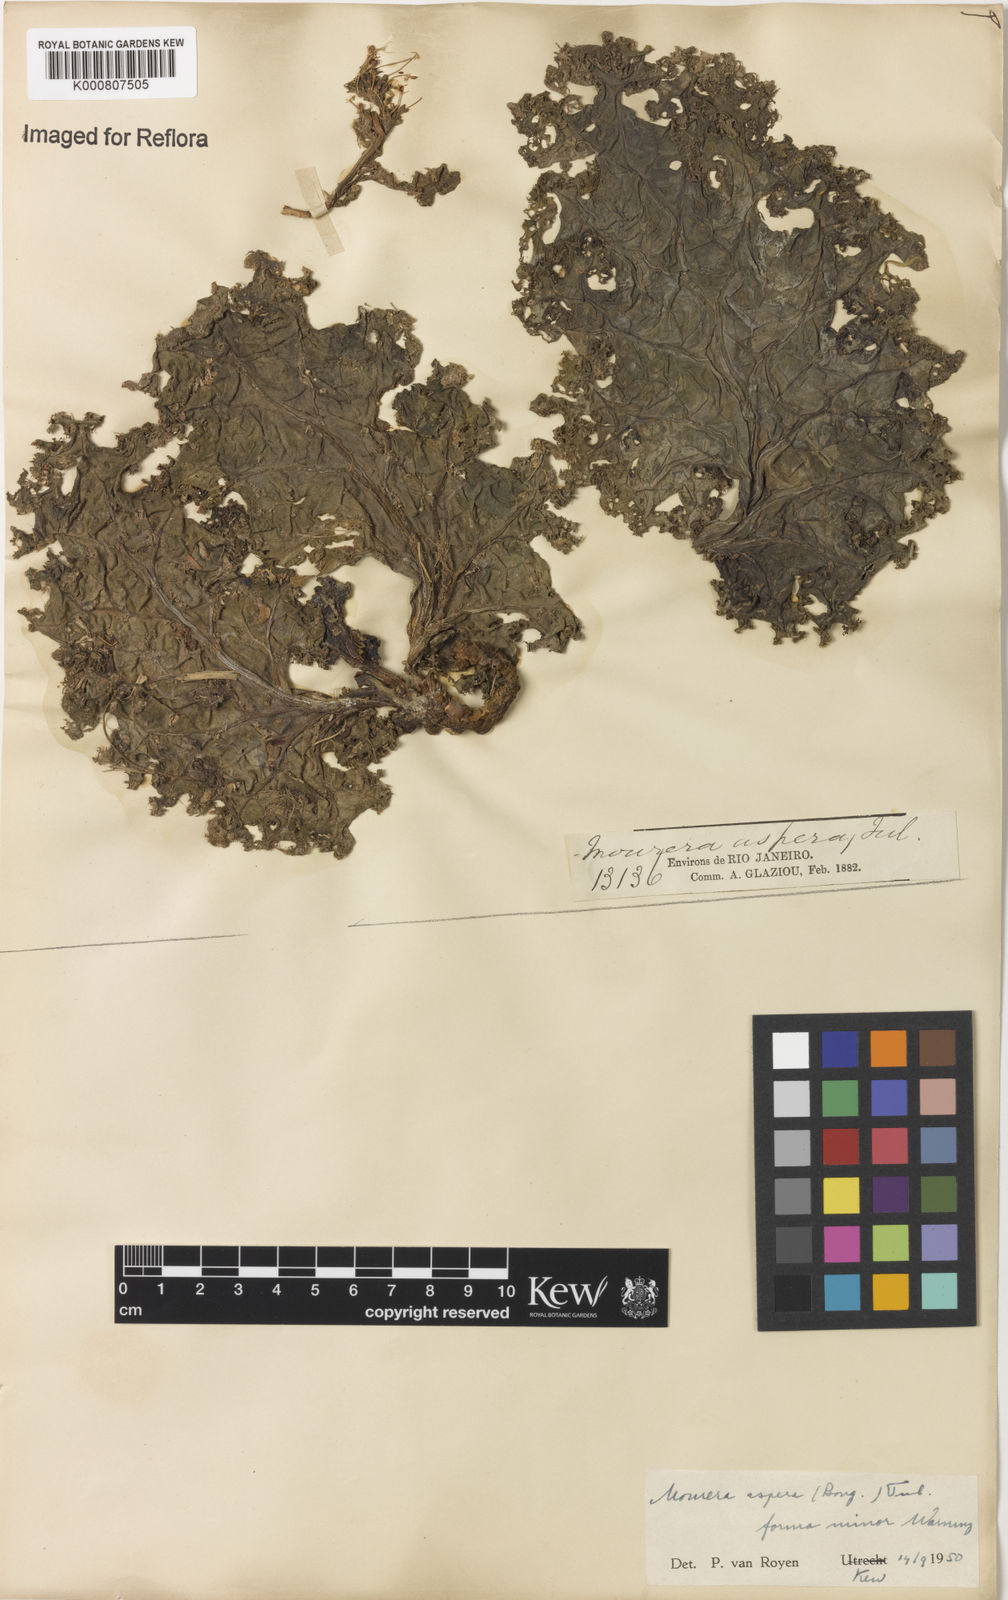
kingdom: Plantae
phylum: Tracheophyta
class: Magnoliopsida
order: Malpighiales
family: Podostemaceae
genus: Mourera
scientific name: Mourera aspera
